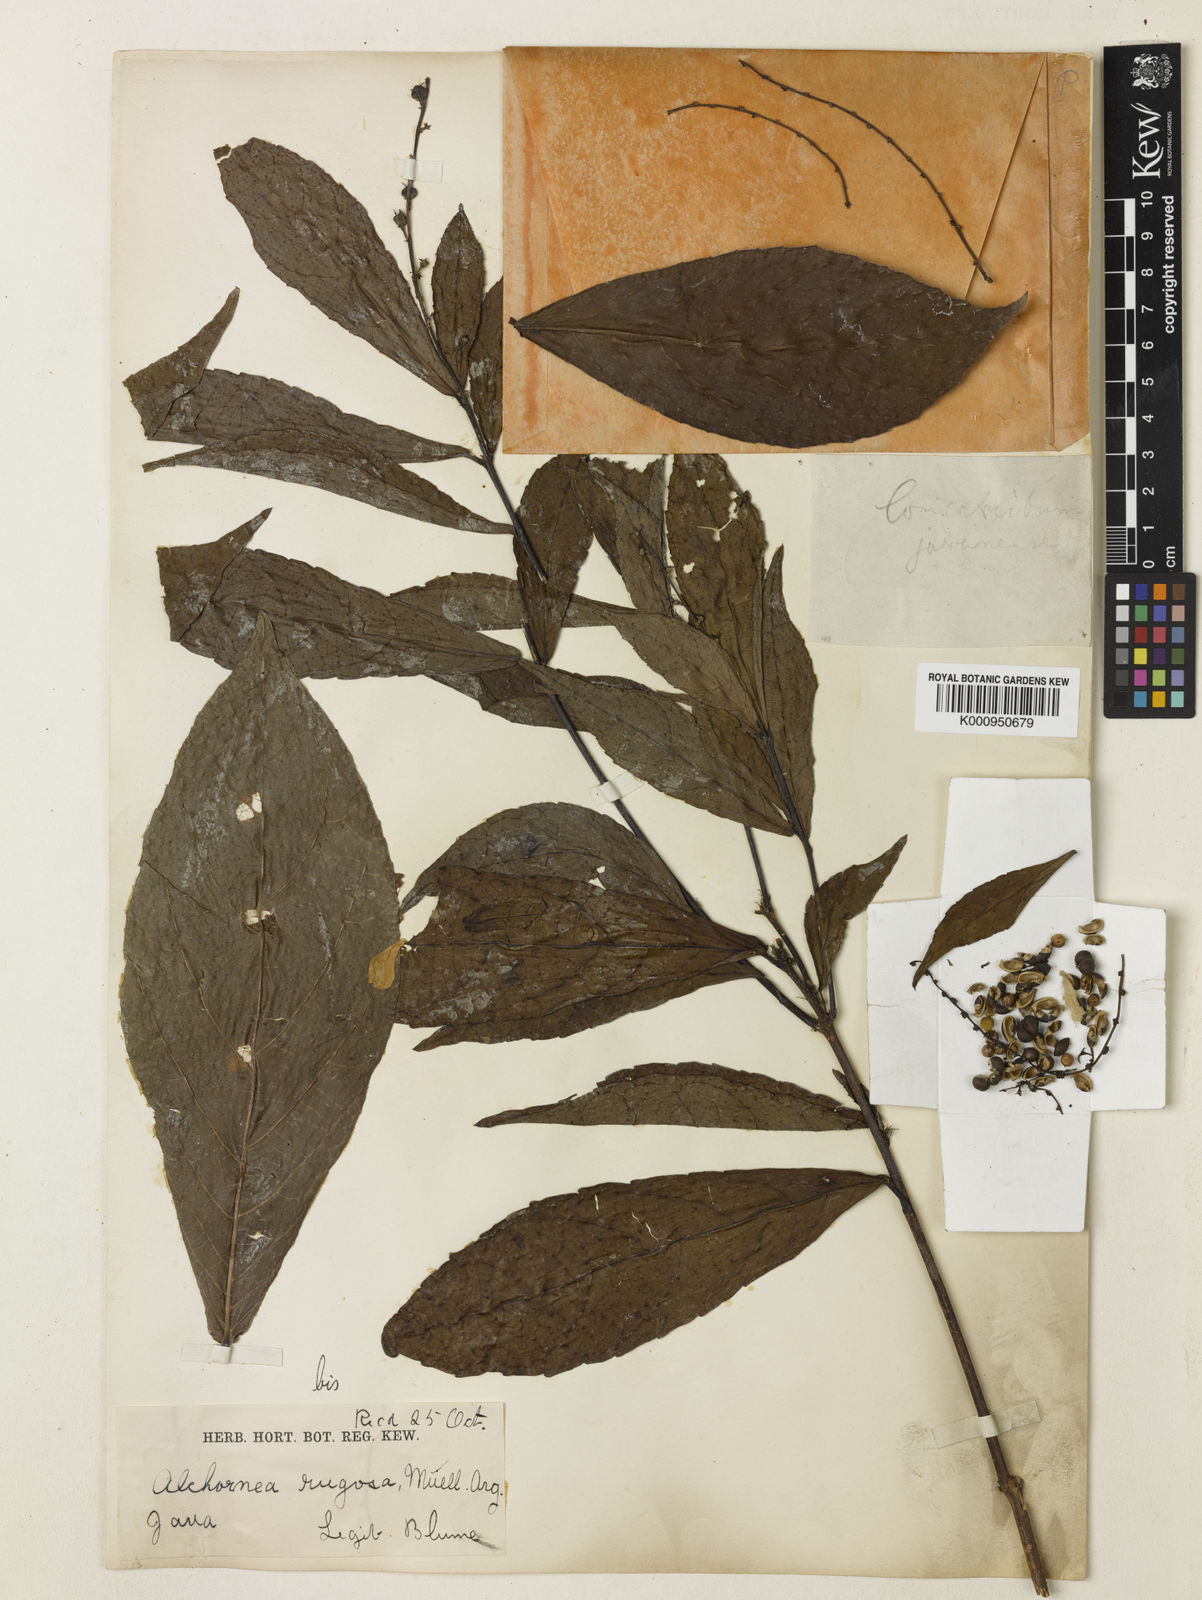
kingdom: Plantae
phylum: Tracheophyta
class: Magnoliopsida
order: Malpighiales
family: Euphorbiaceae
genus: Alchornea
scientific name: Alchornea
